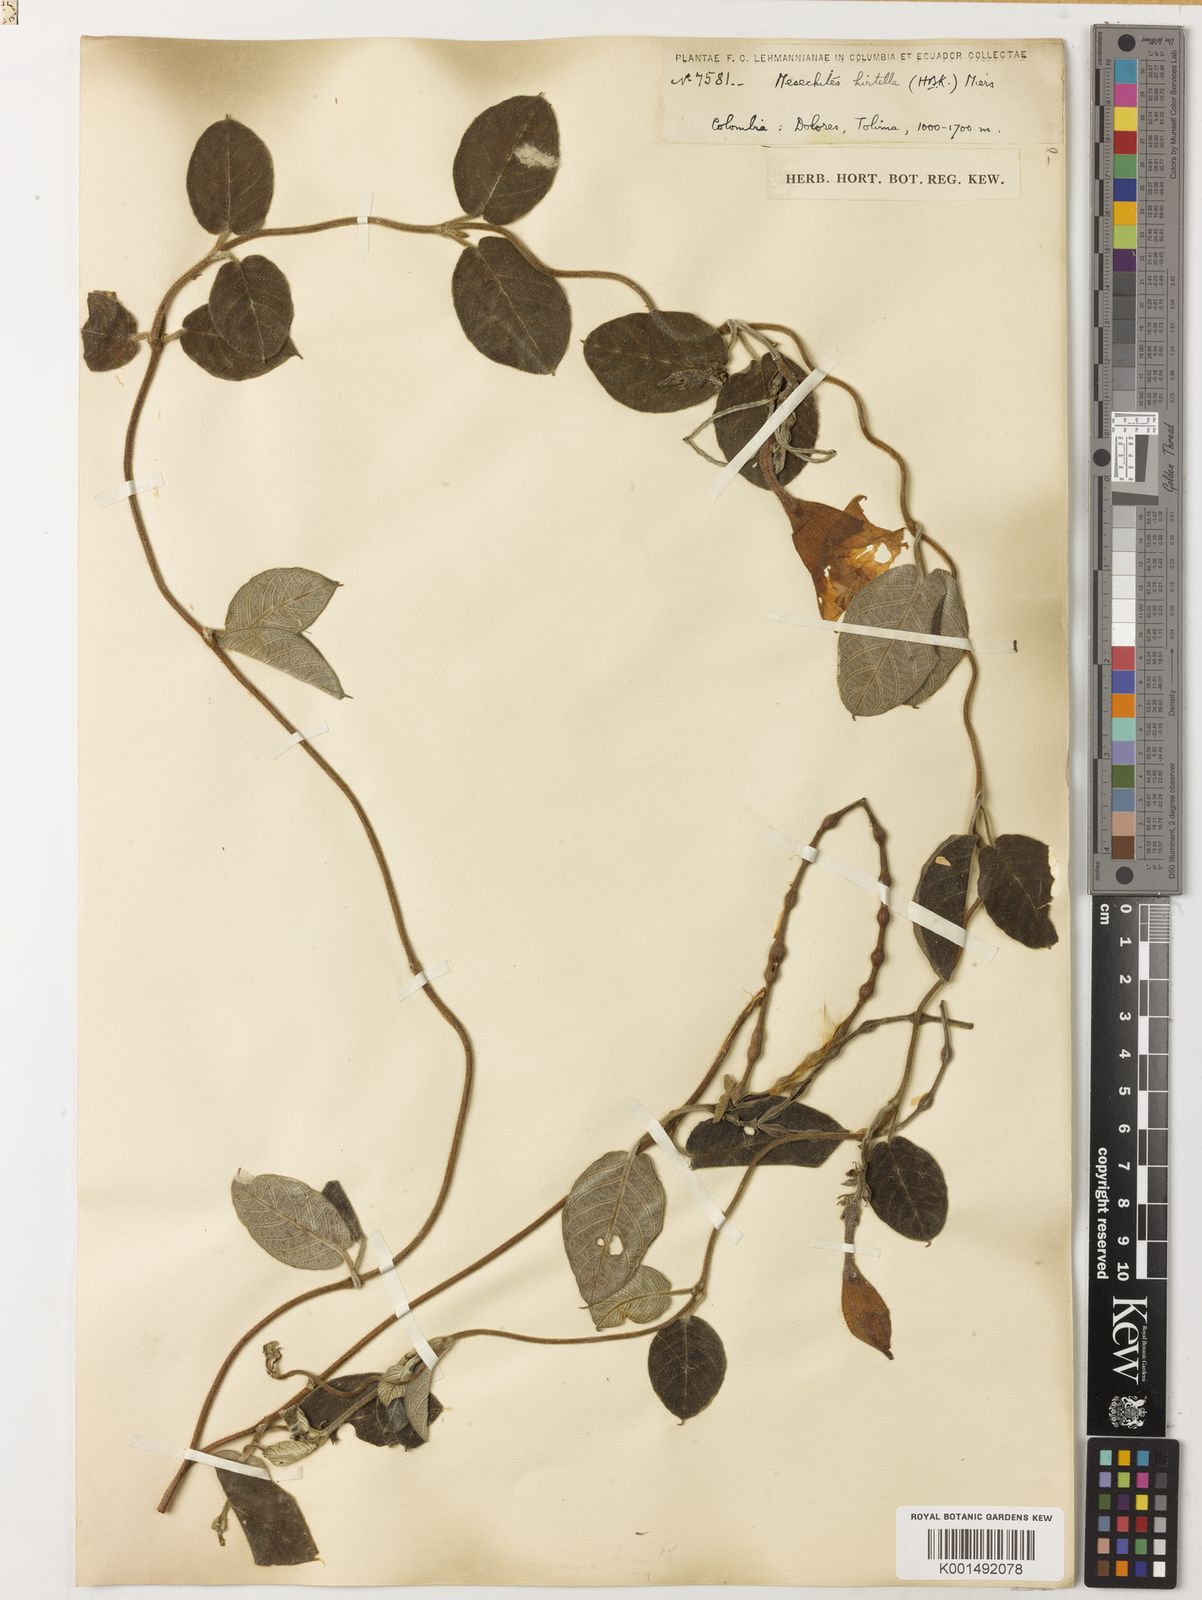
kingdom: Plantae
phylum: Tracheophyta
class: Magnoliopsida
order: Gentianales
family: Apocynaceae
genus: Mandevilla
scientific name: Mandevilla mollissima
